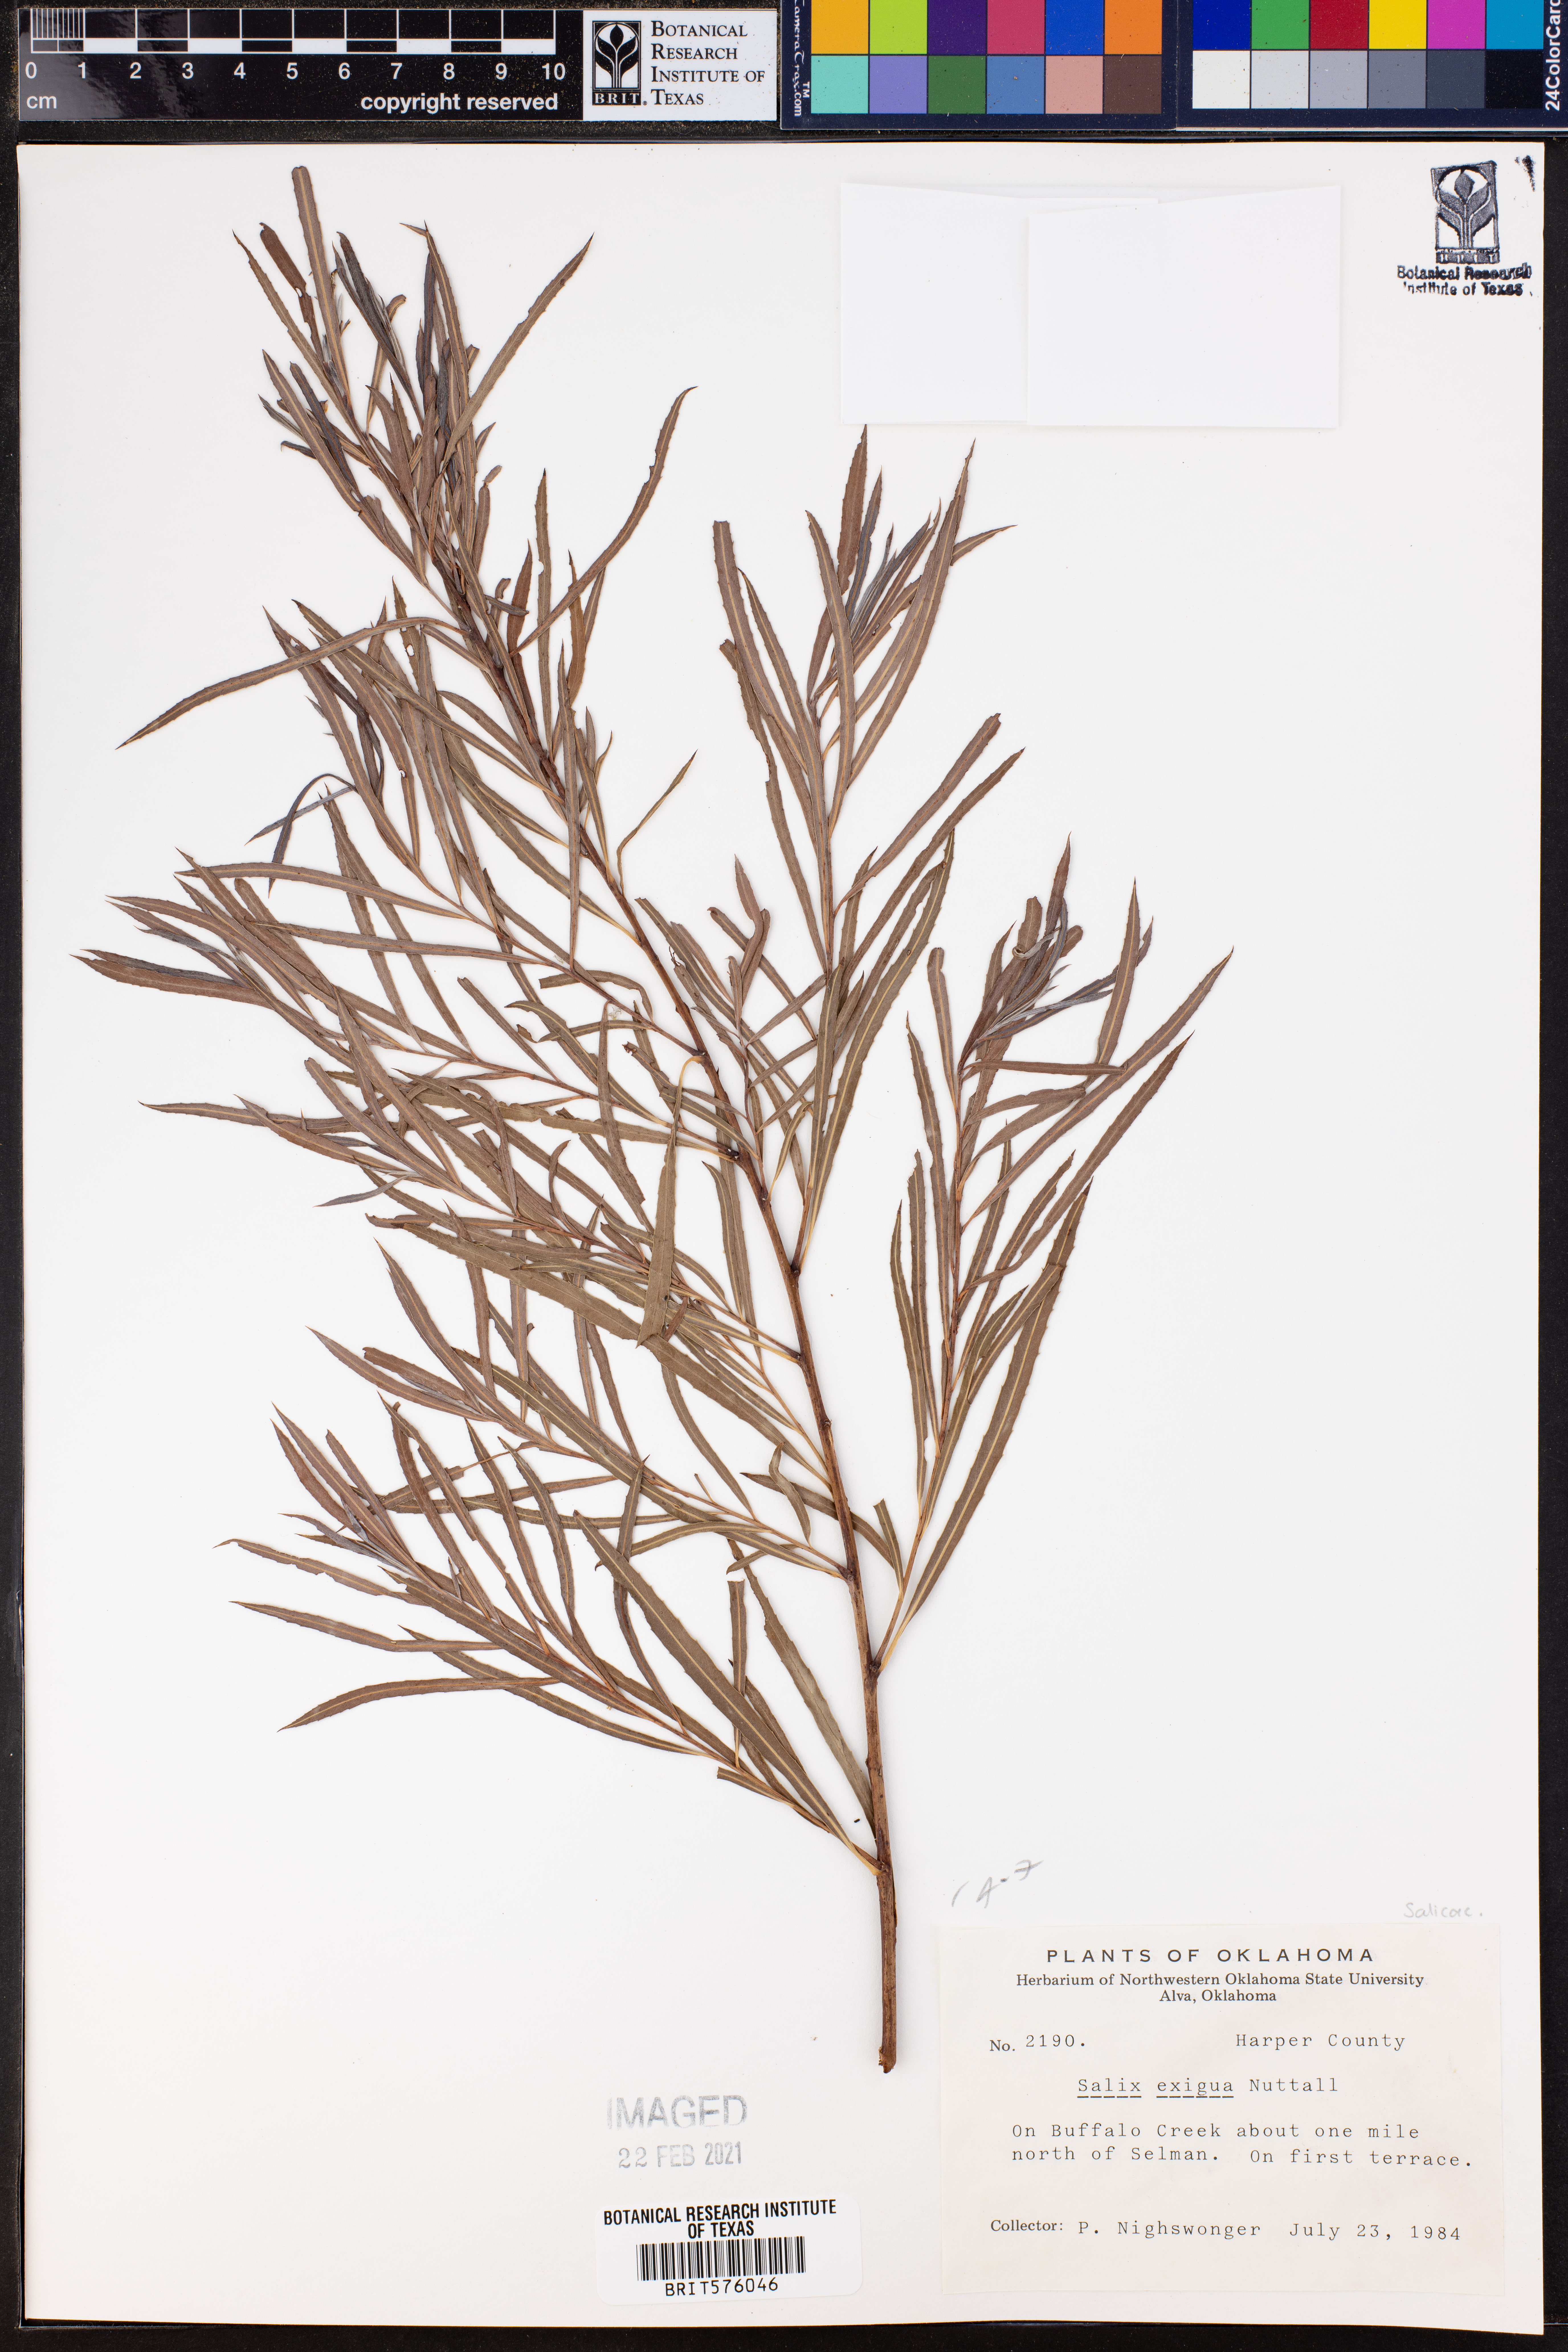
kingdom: Plantae
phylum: Tracheophyta
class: Magnoliopsida
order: Malpighiales
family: Salicaceae
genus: Salix
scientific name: Salix exigua
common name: Coyote willow
